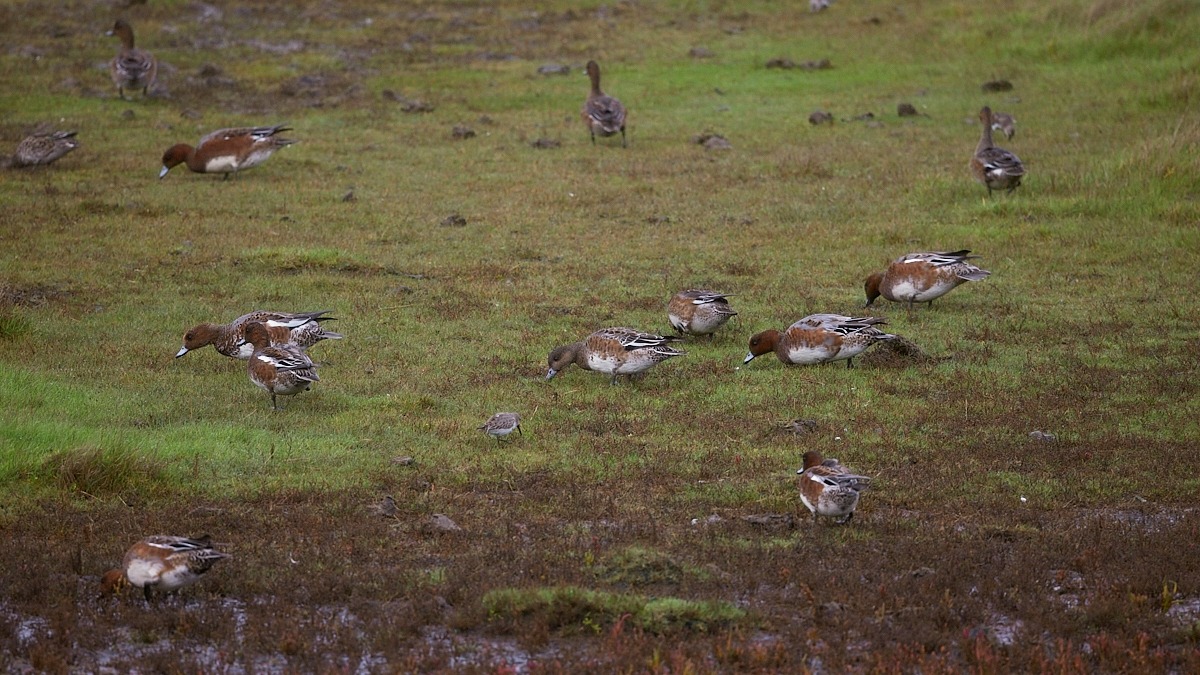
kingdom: Animalia
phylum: Chordata
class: Aves
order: Anseriformes
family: Anatidae
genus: Mareca
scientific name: Mareca penelope
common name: Pibeand
